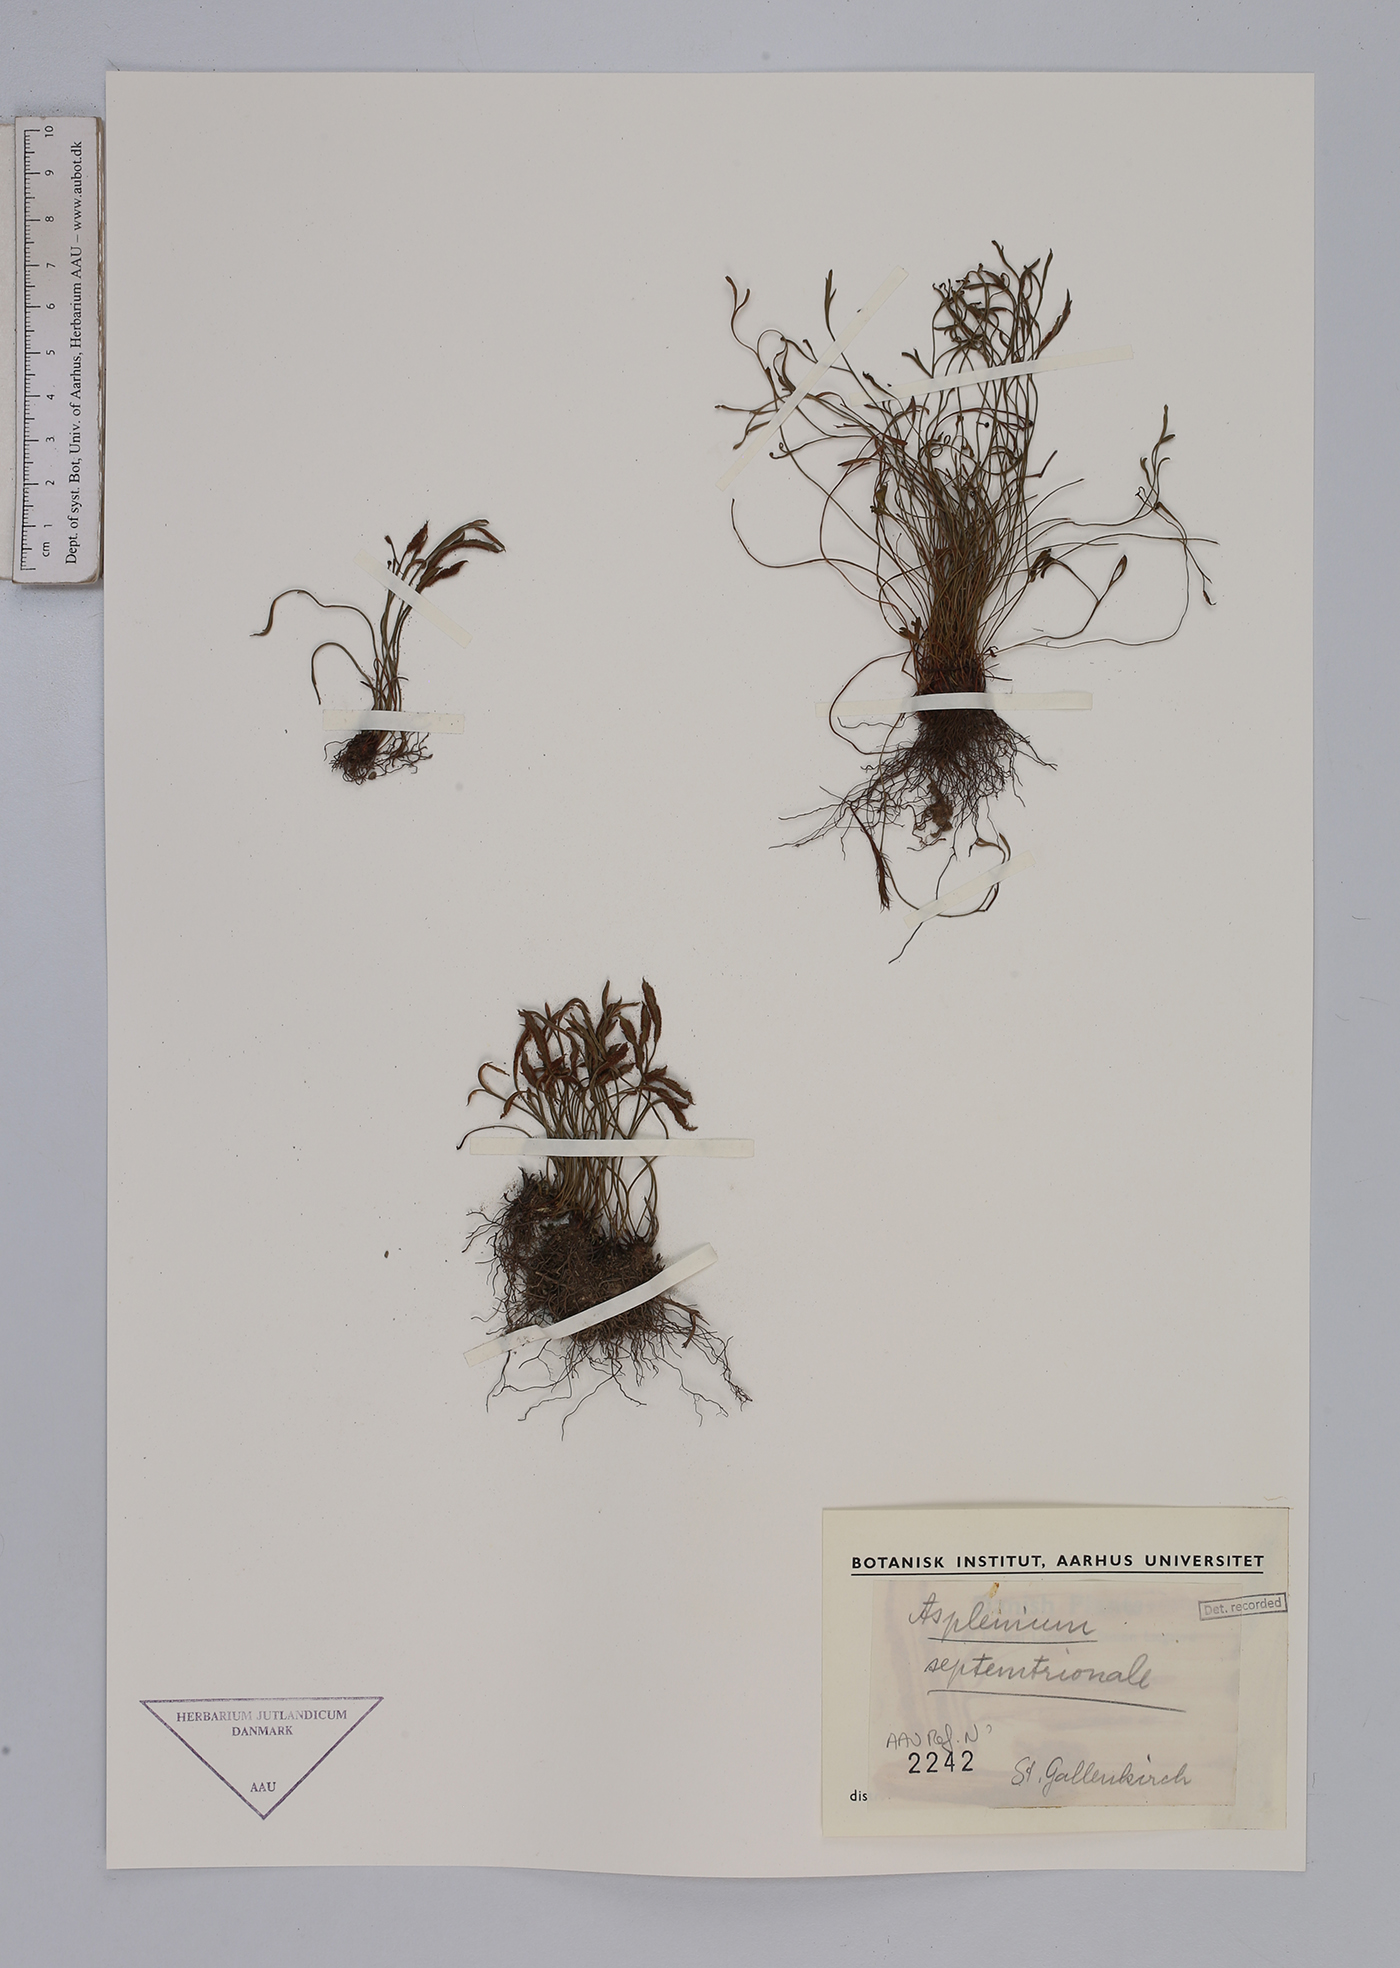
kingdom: Plantae
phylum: Tracheophyta
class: Polypodiopsida
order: Polypodiales
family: Aspleniaceae
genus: Asplenium
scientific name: Asplenium septentrionale
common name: Forked spleenwort
